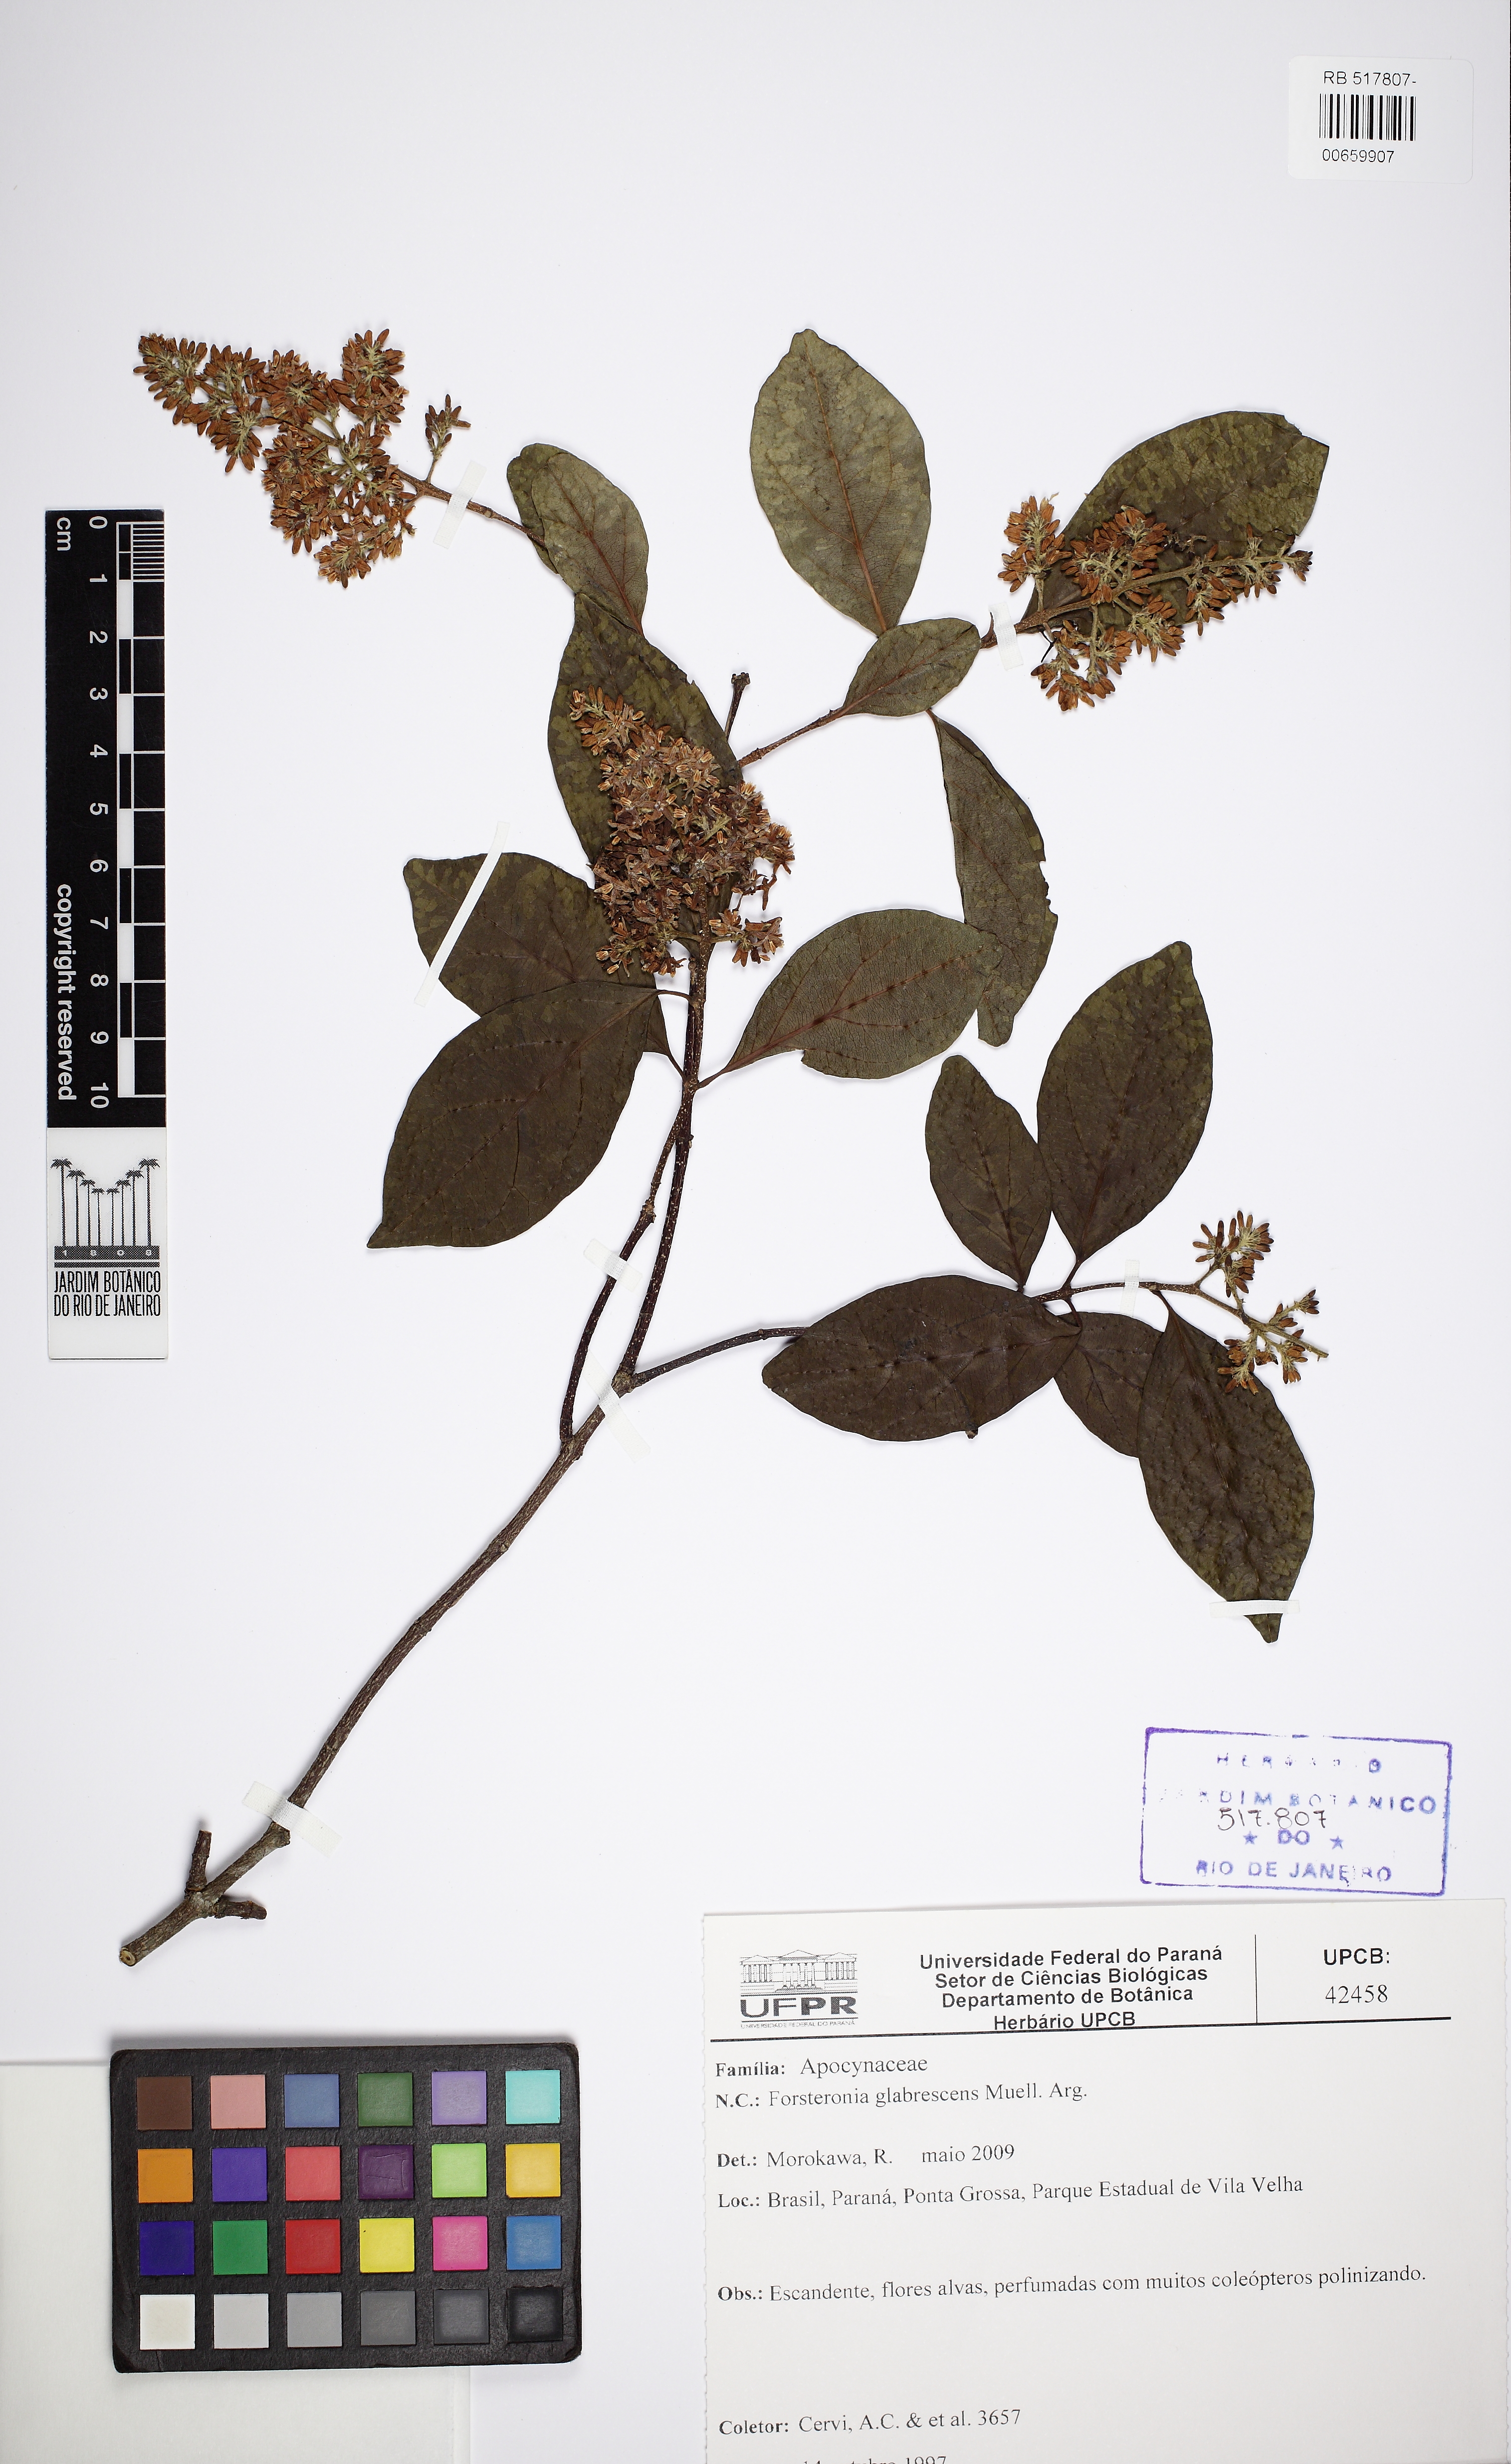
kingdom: Plantae
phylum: Tracheophyta
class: Magnoliopsida
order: Gentianales
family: Apocynaceae
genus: Forsteronia
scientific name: Forsteronia glabrescens
